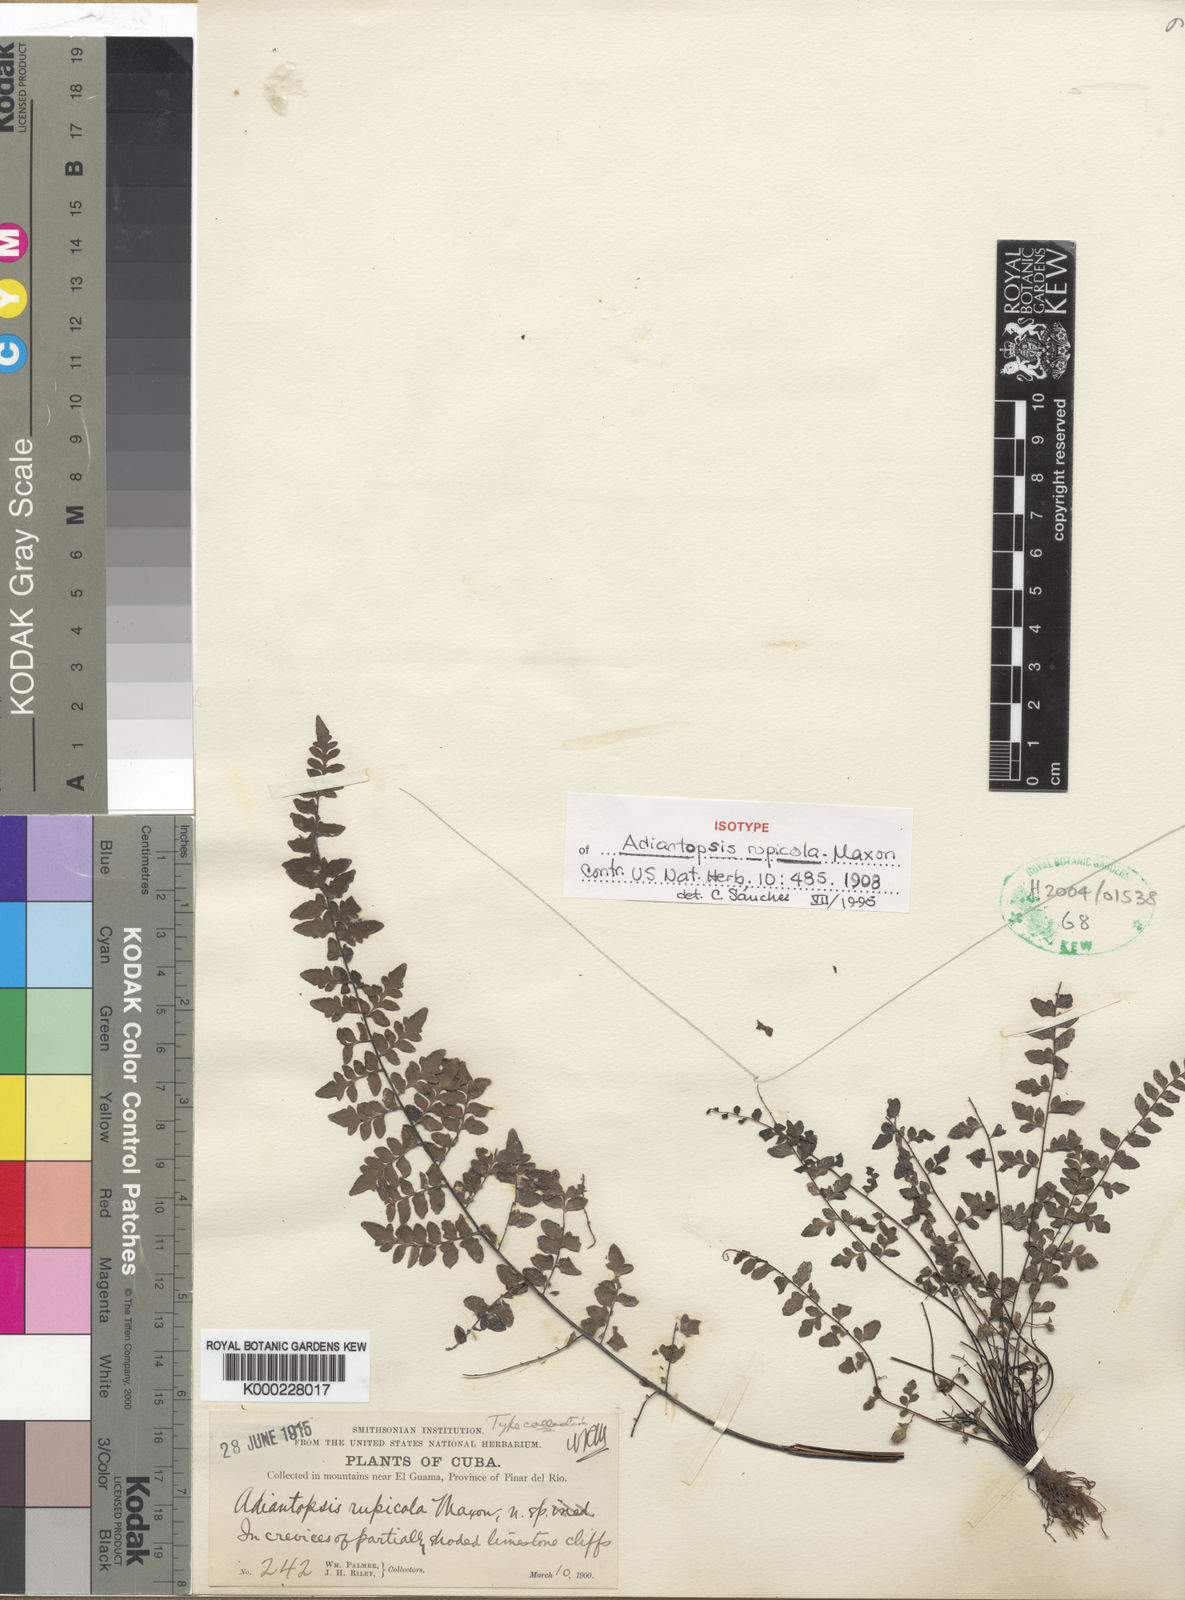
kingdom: Plantae
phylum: Tracheophyta
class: Polypodiopsida
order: Polypodiales
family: Pteridaceae
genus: Adiantopsis
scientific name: Adiantopsis rupicola
